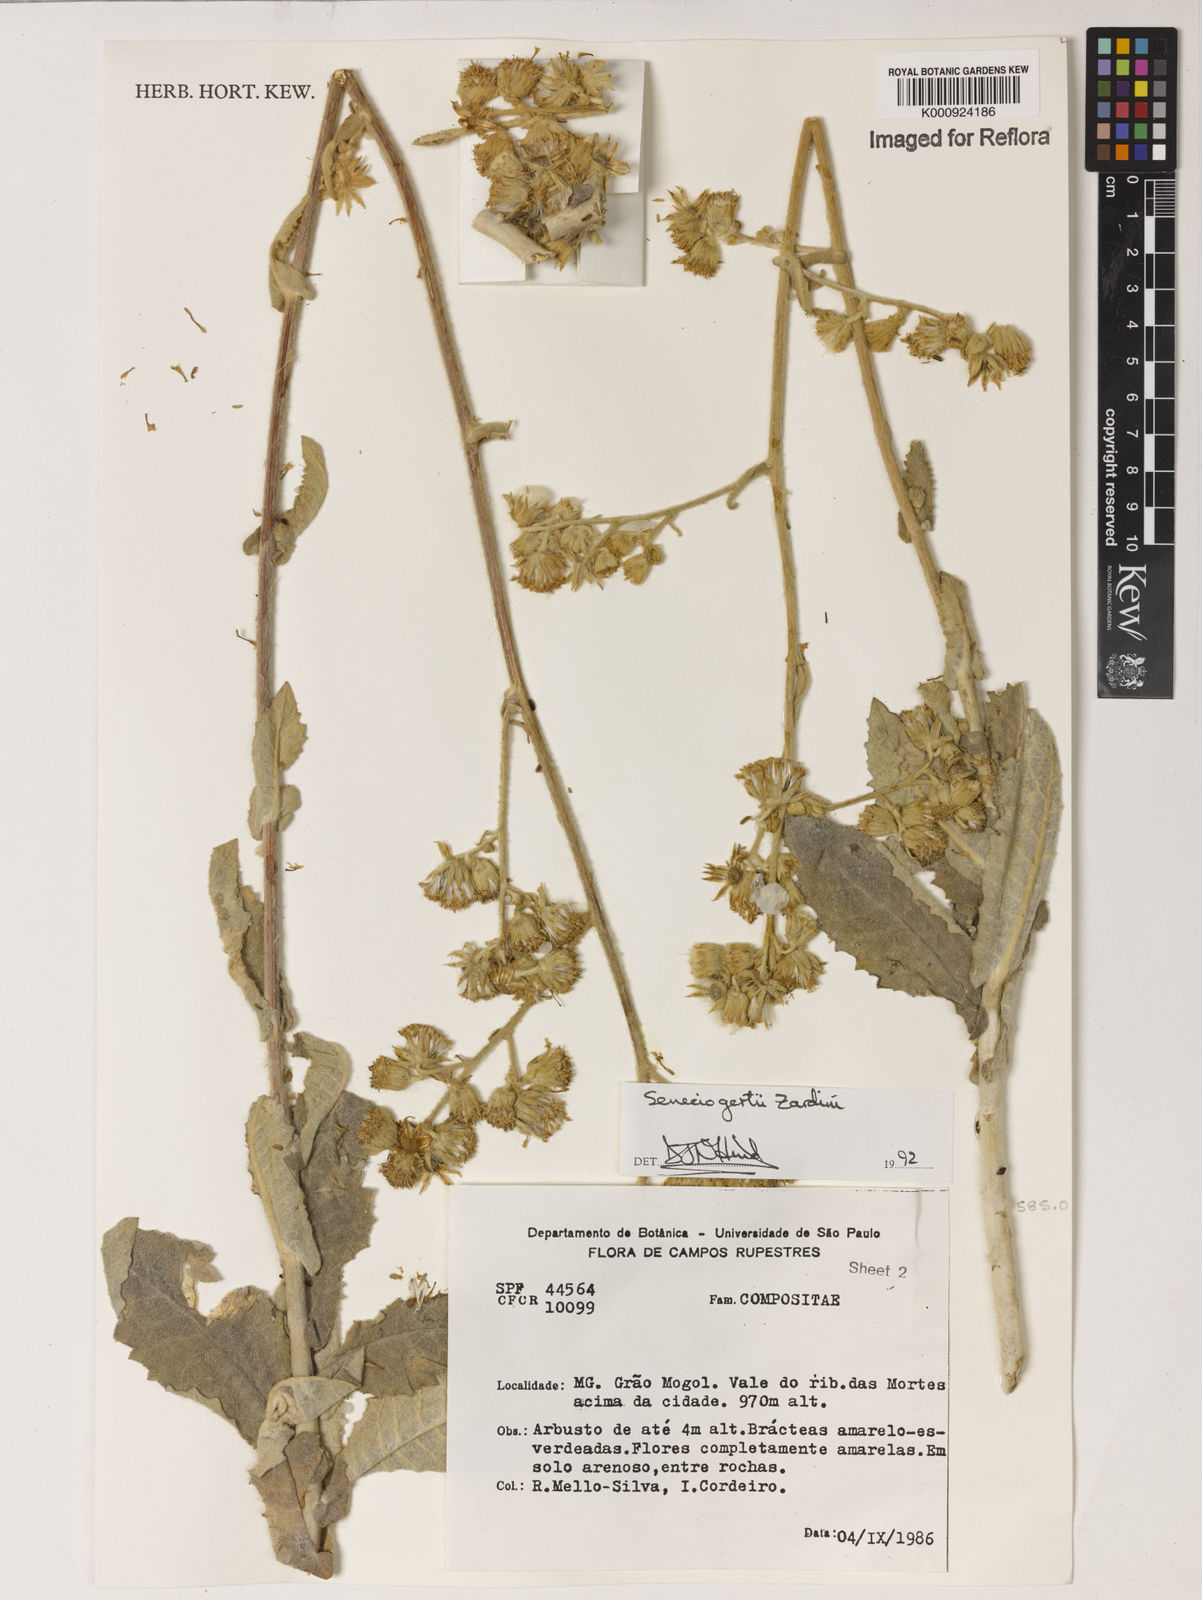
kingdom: Plantae
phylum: Tracheophyta
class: Magnoliopsida
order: Asterales
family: Asteraceae
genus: Senecio
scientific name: Senecio gertii
